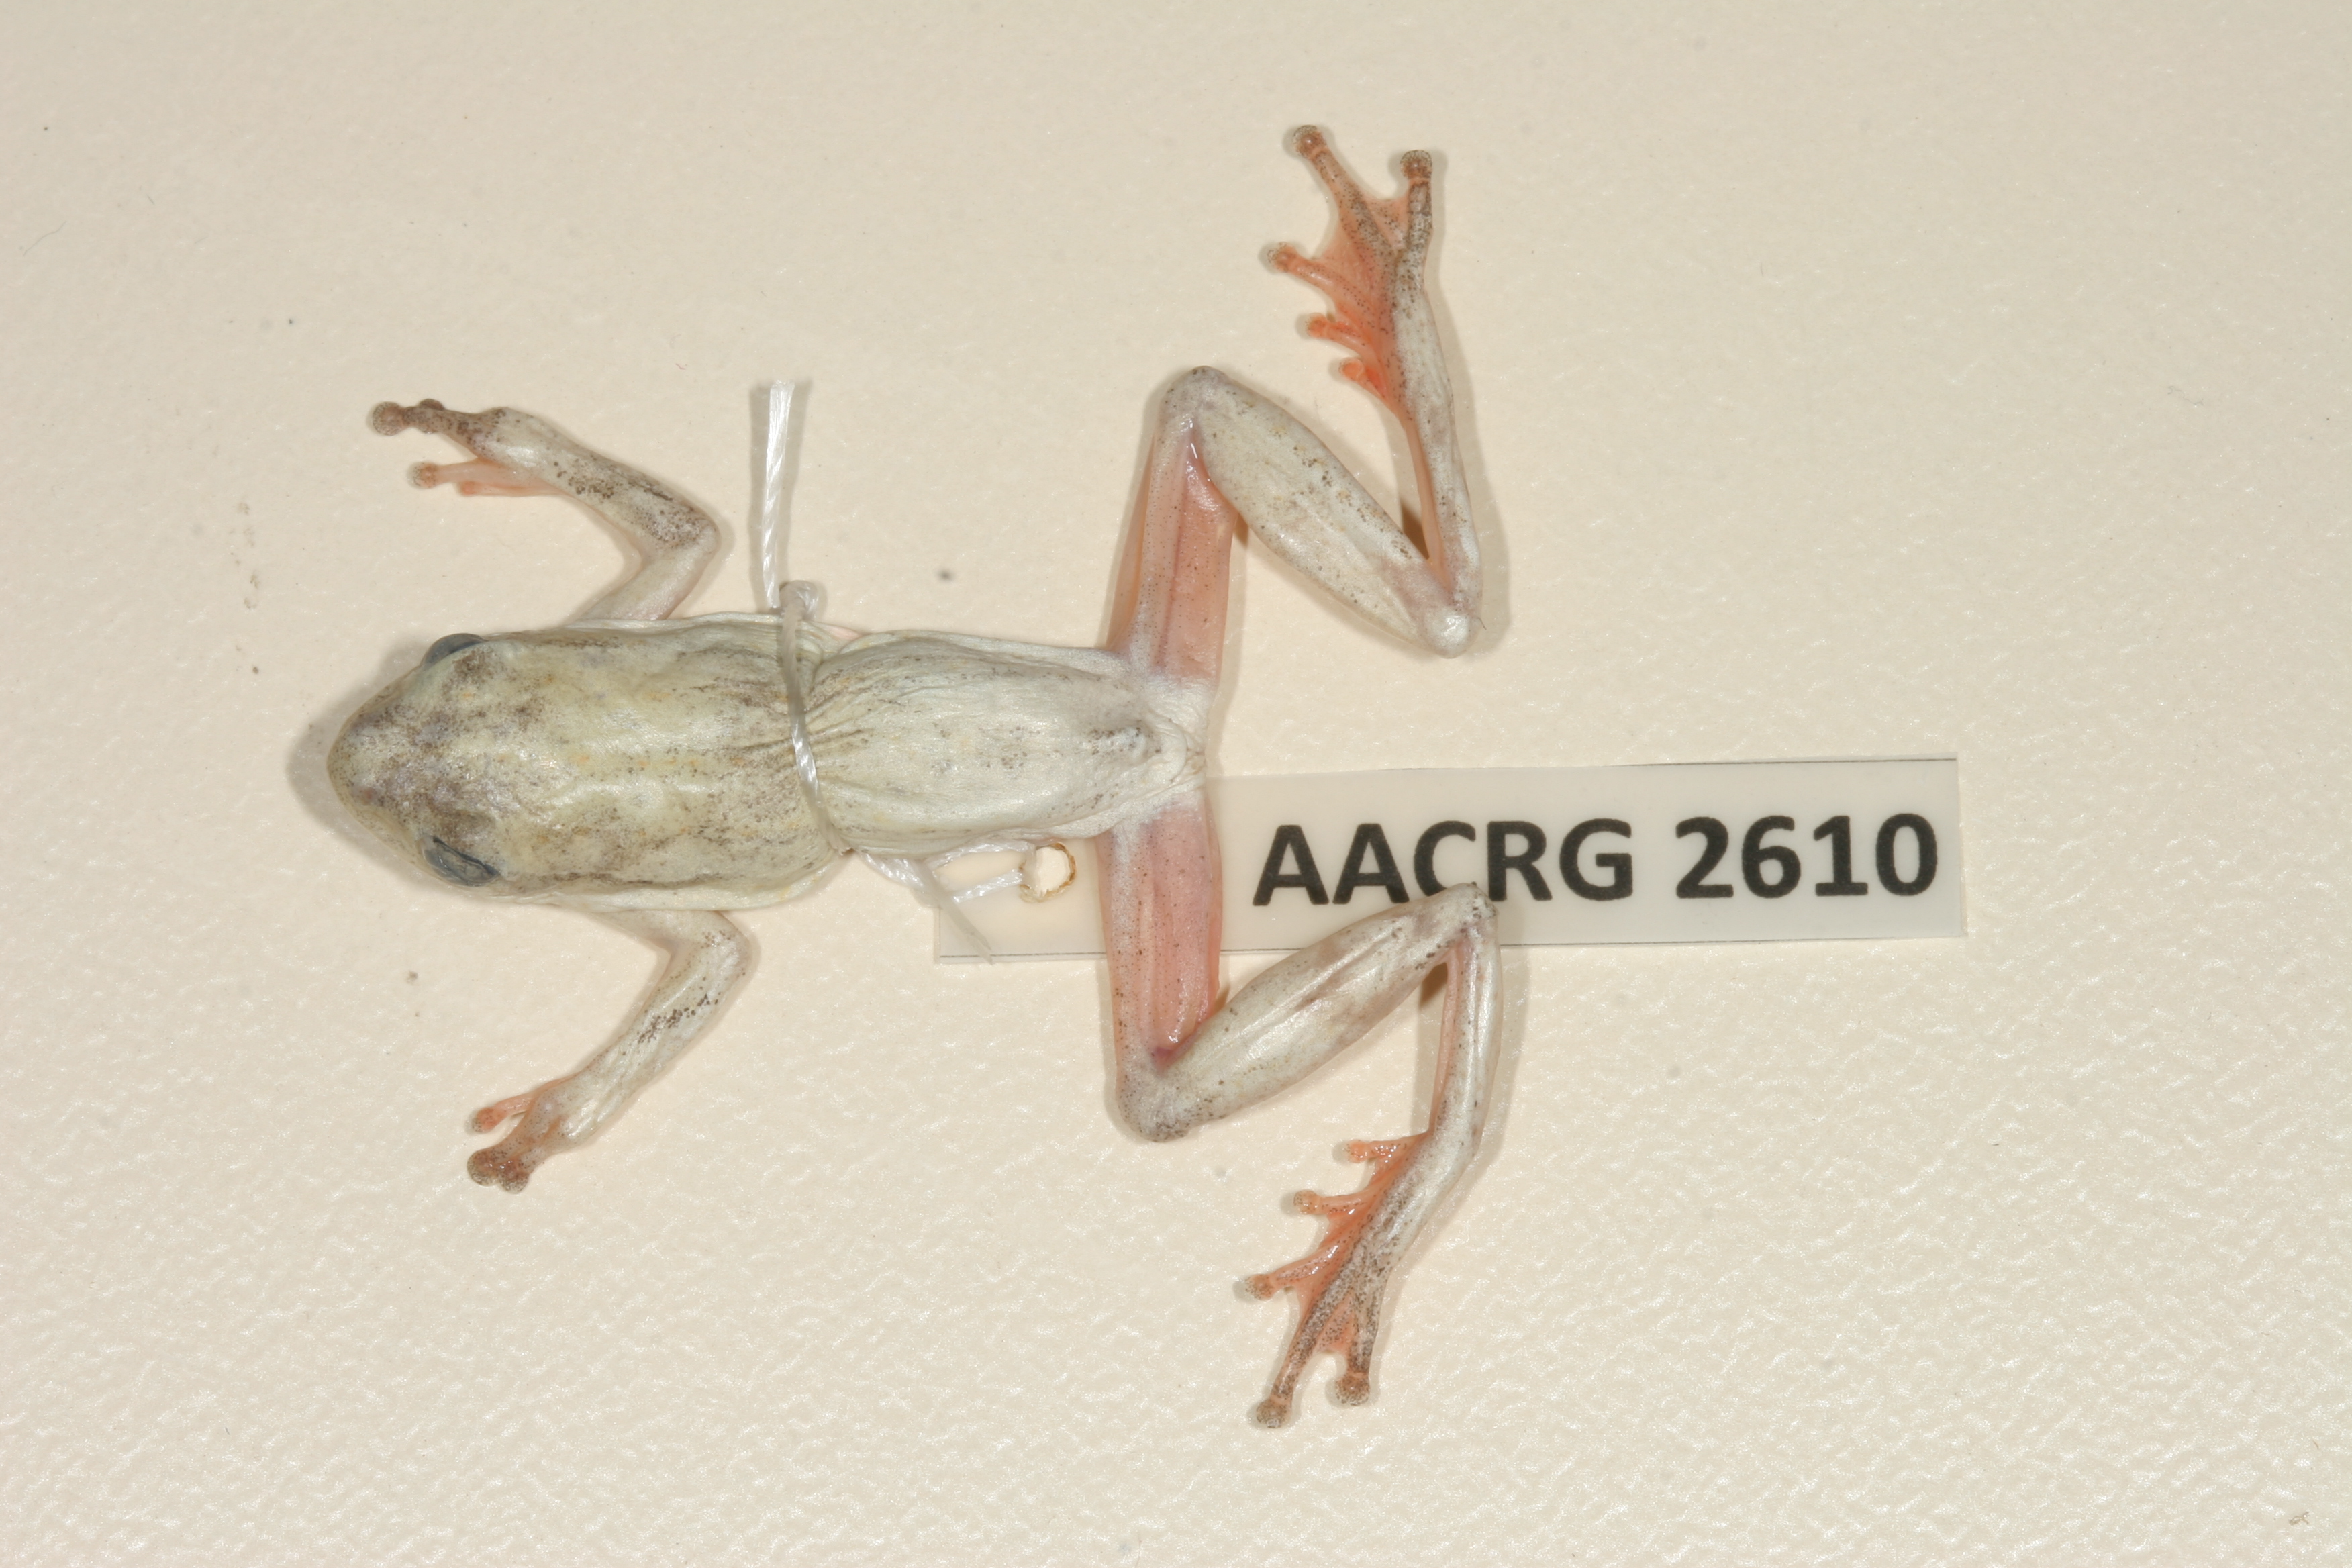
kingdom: Animalia
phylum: Chordata
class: Amphibia
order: Anura
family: Hyperoliidae
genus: Hyperolius
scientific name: Hyperolius marmoratus
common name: Painted reed frog
